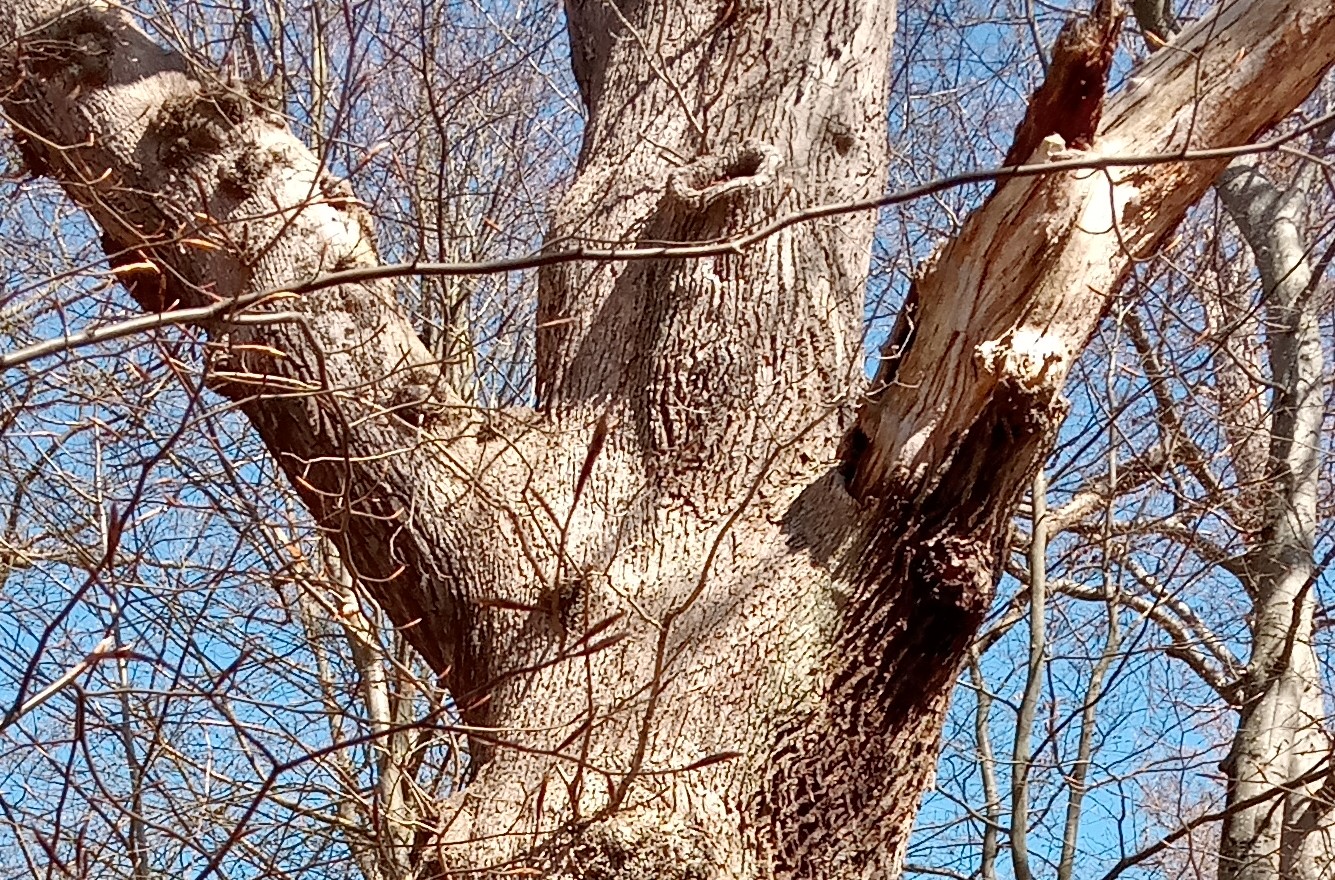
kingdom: Fungi
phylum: Basidiomycota
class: Agaricomycetes
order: Polyporales
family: Phanerochaetaceae
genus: Hapalopilus
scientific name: Hapalopilus croceus
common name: safrangul pragtporesvamp
